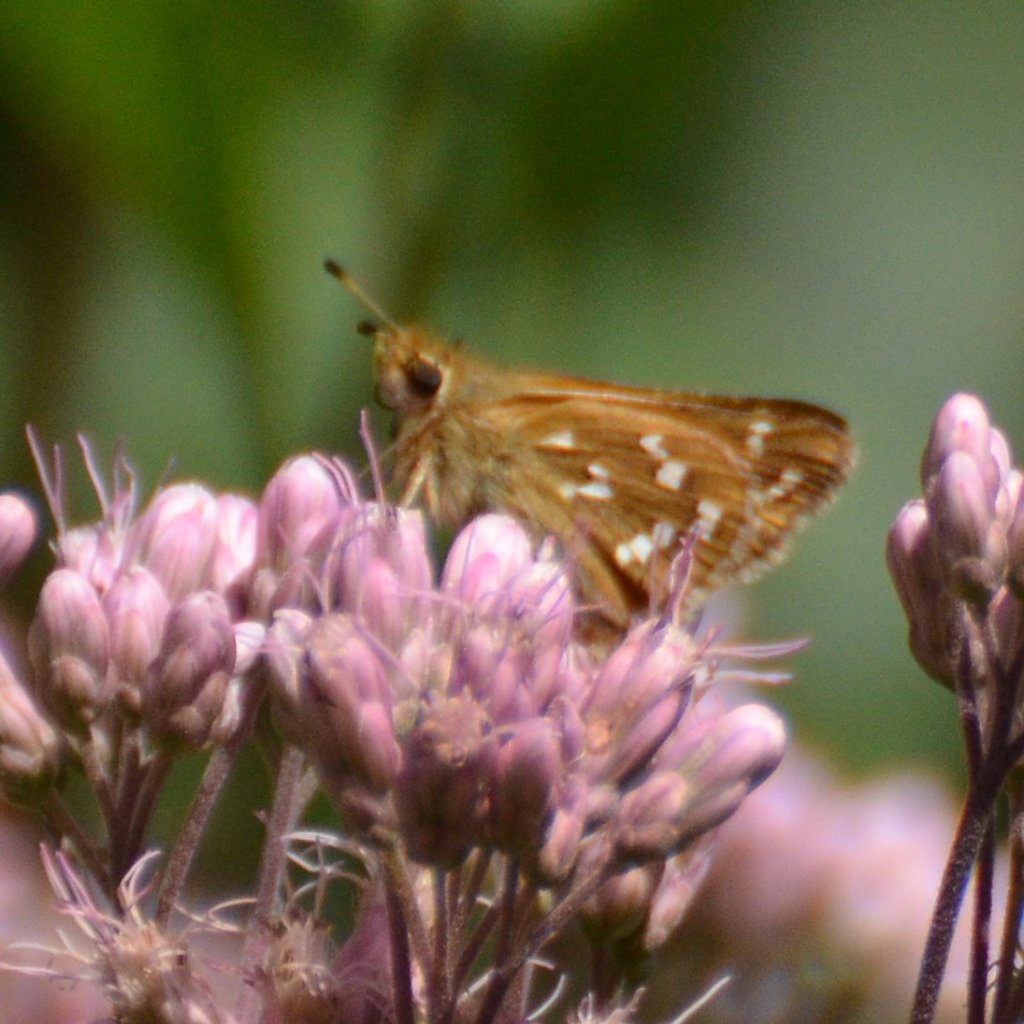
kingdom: Animalia
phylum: Arthropoda
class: Insecta
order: Lepidoptera
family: Hesperiidae
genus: Hesperia
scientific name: Hesperia comma
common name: Common Branded Skipper
